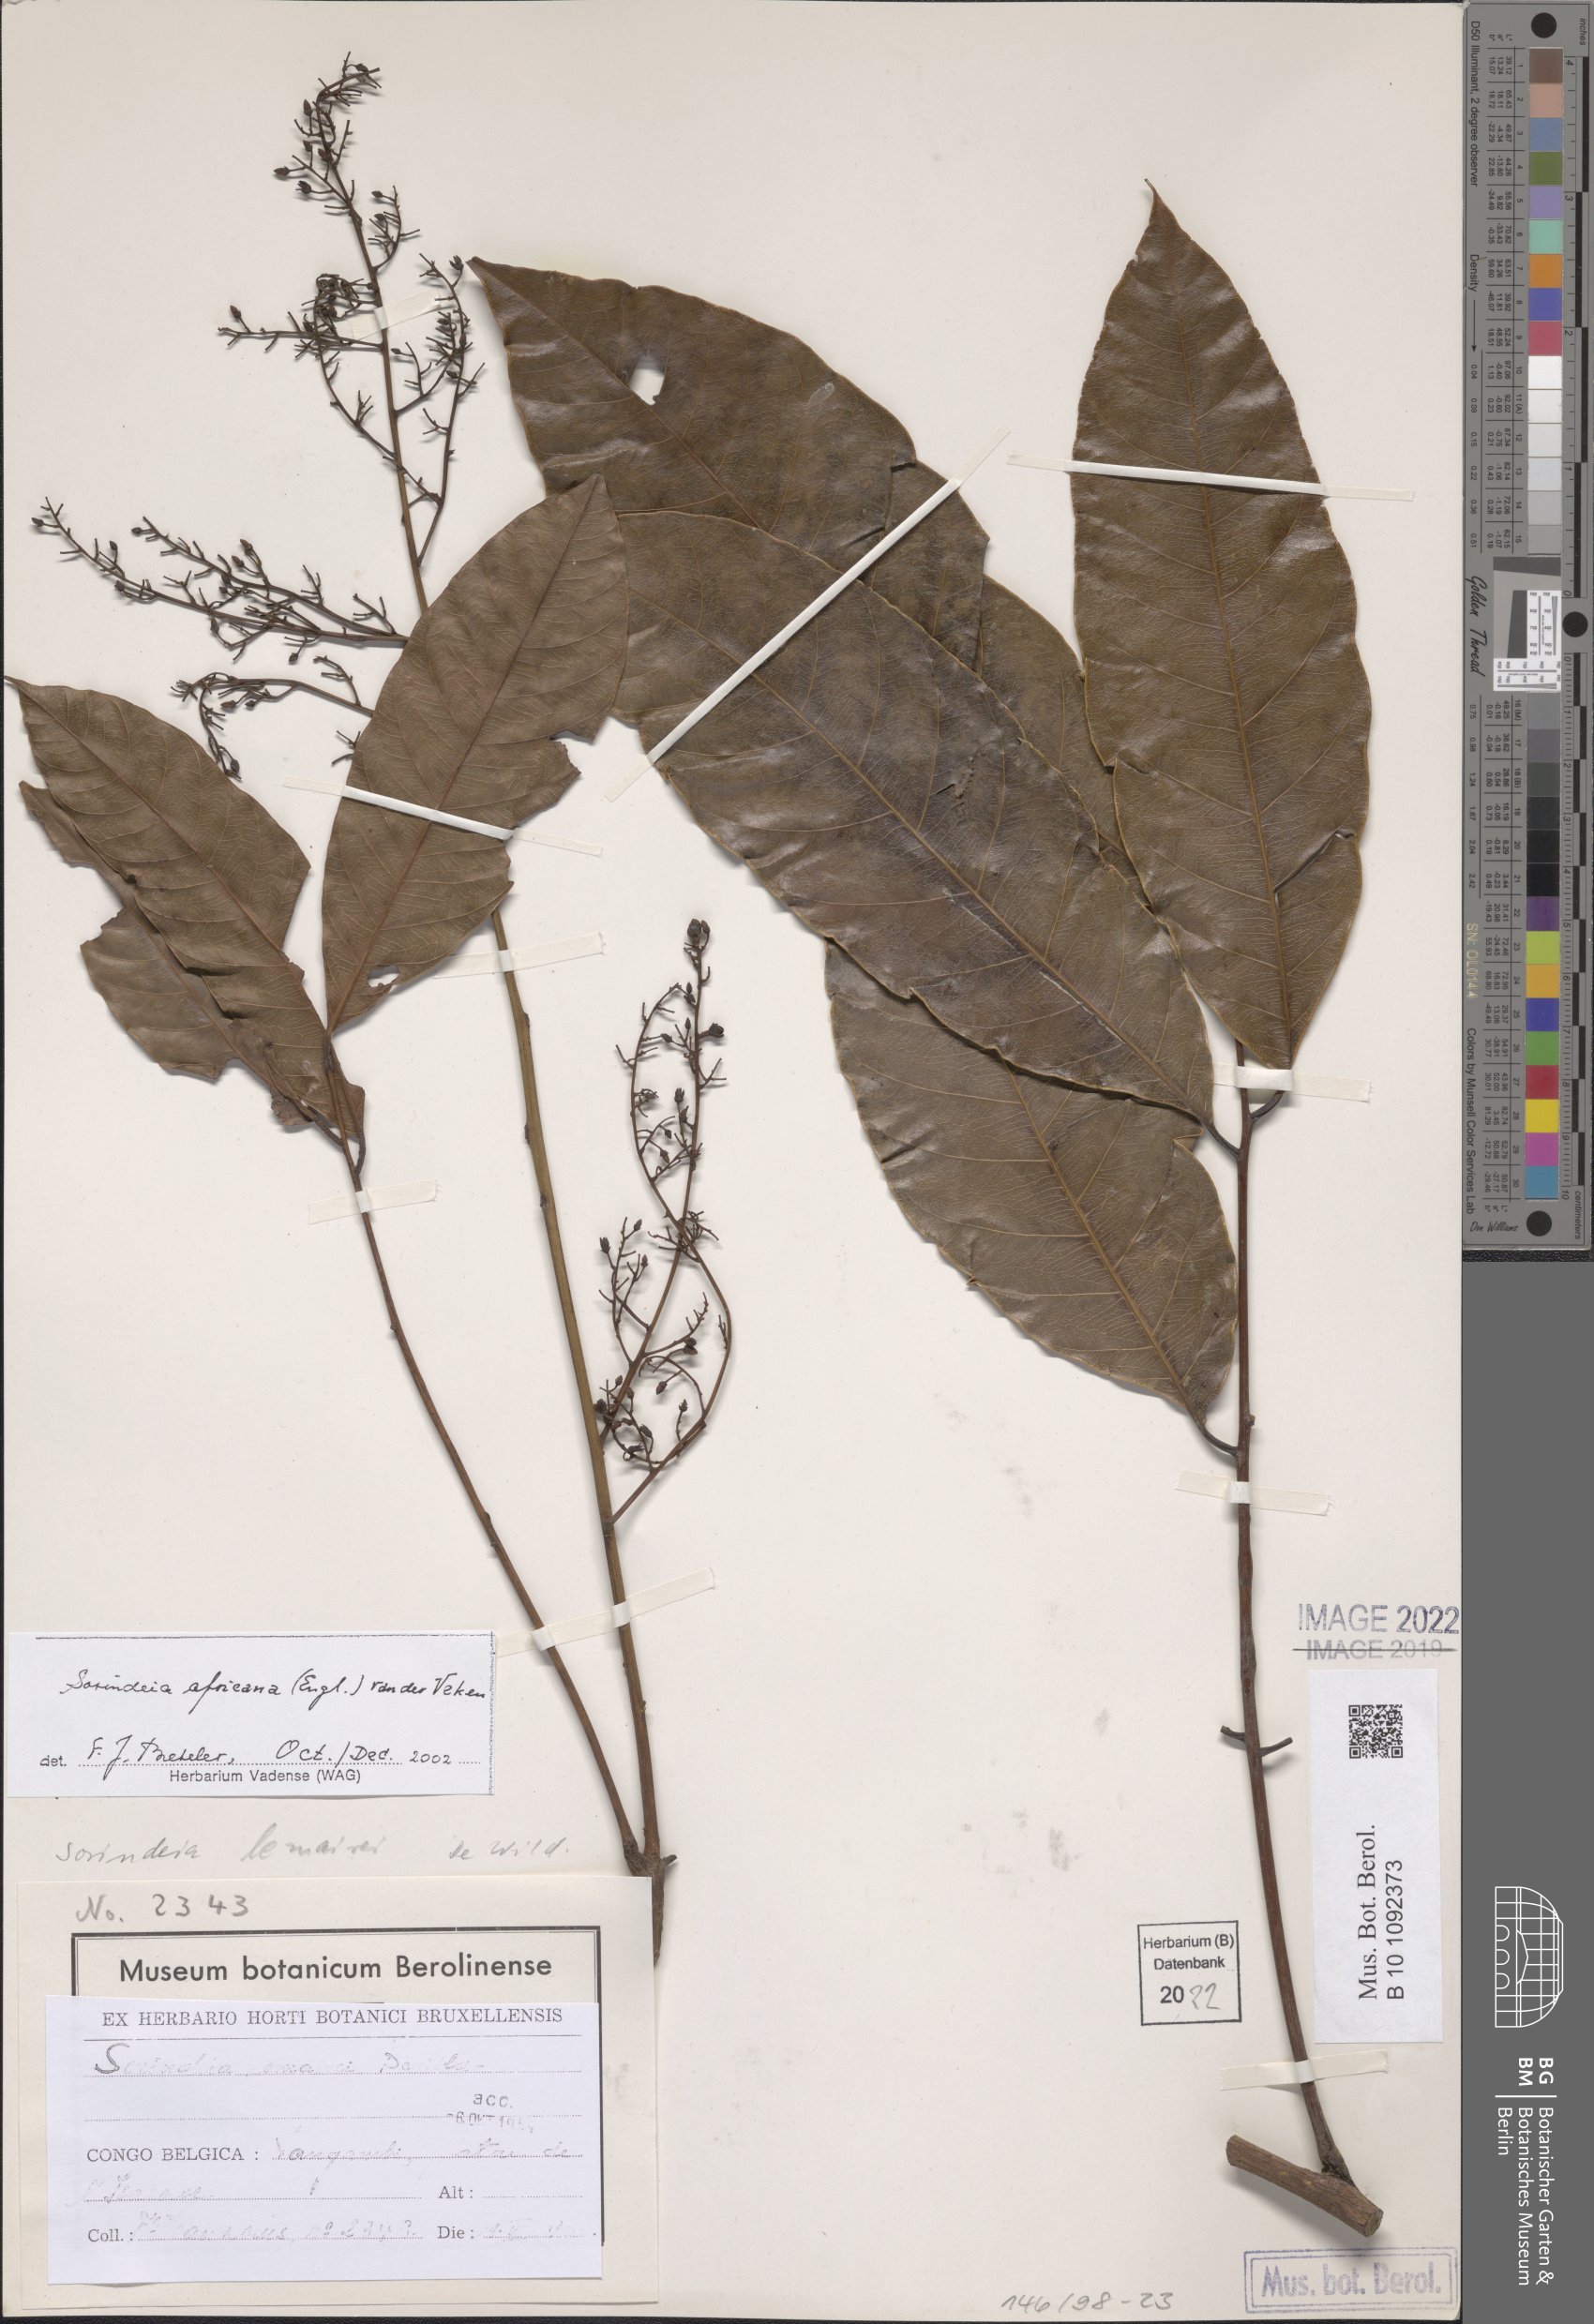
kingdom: Plantae
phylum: Tracheophyta
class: Magnoliopsida
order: Sapindales
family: Anacardiaceae
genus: Sorindeia
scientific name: Sorindeia africana
